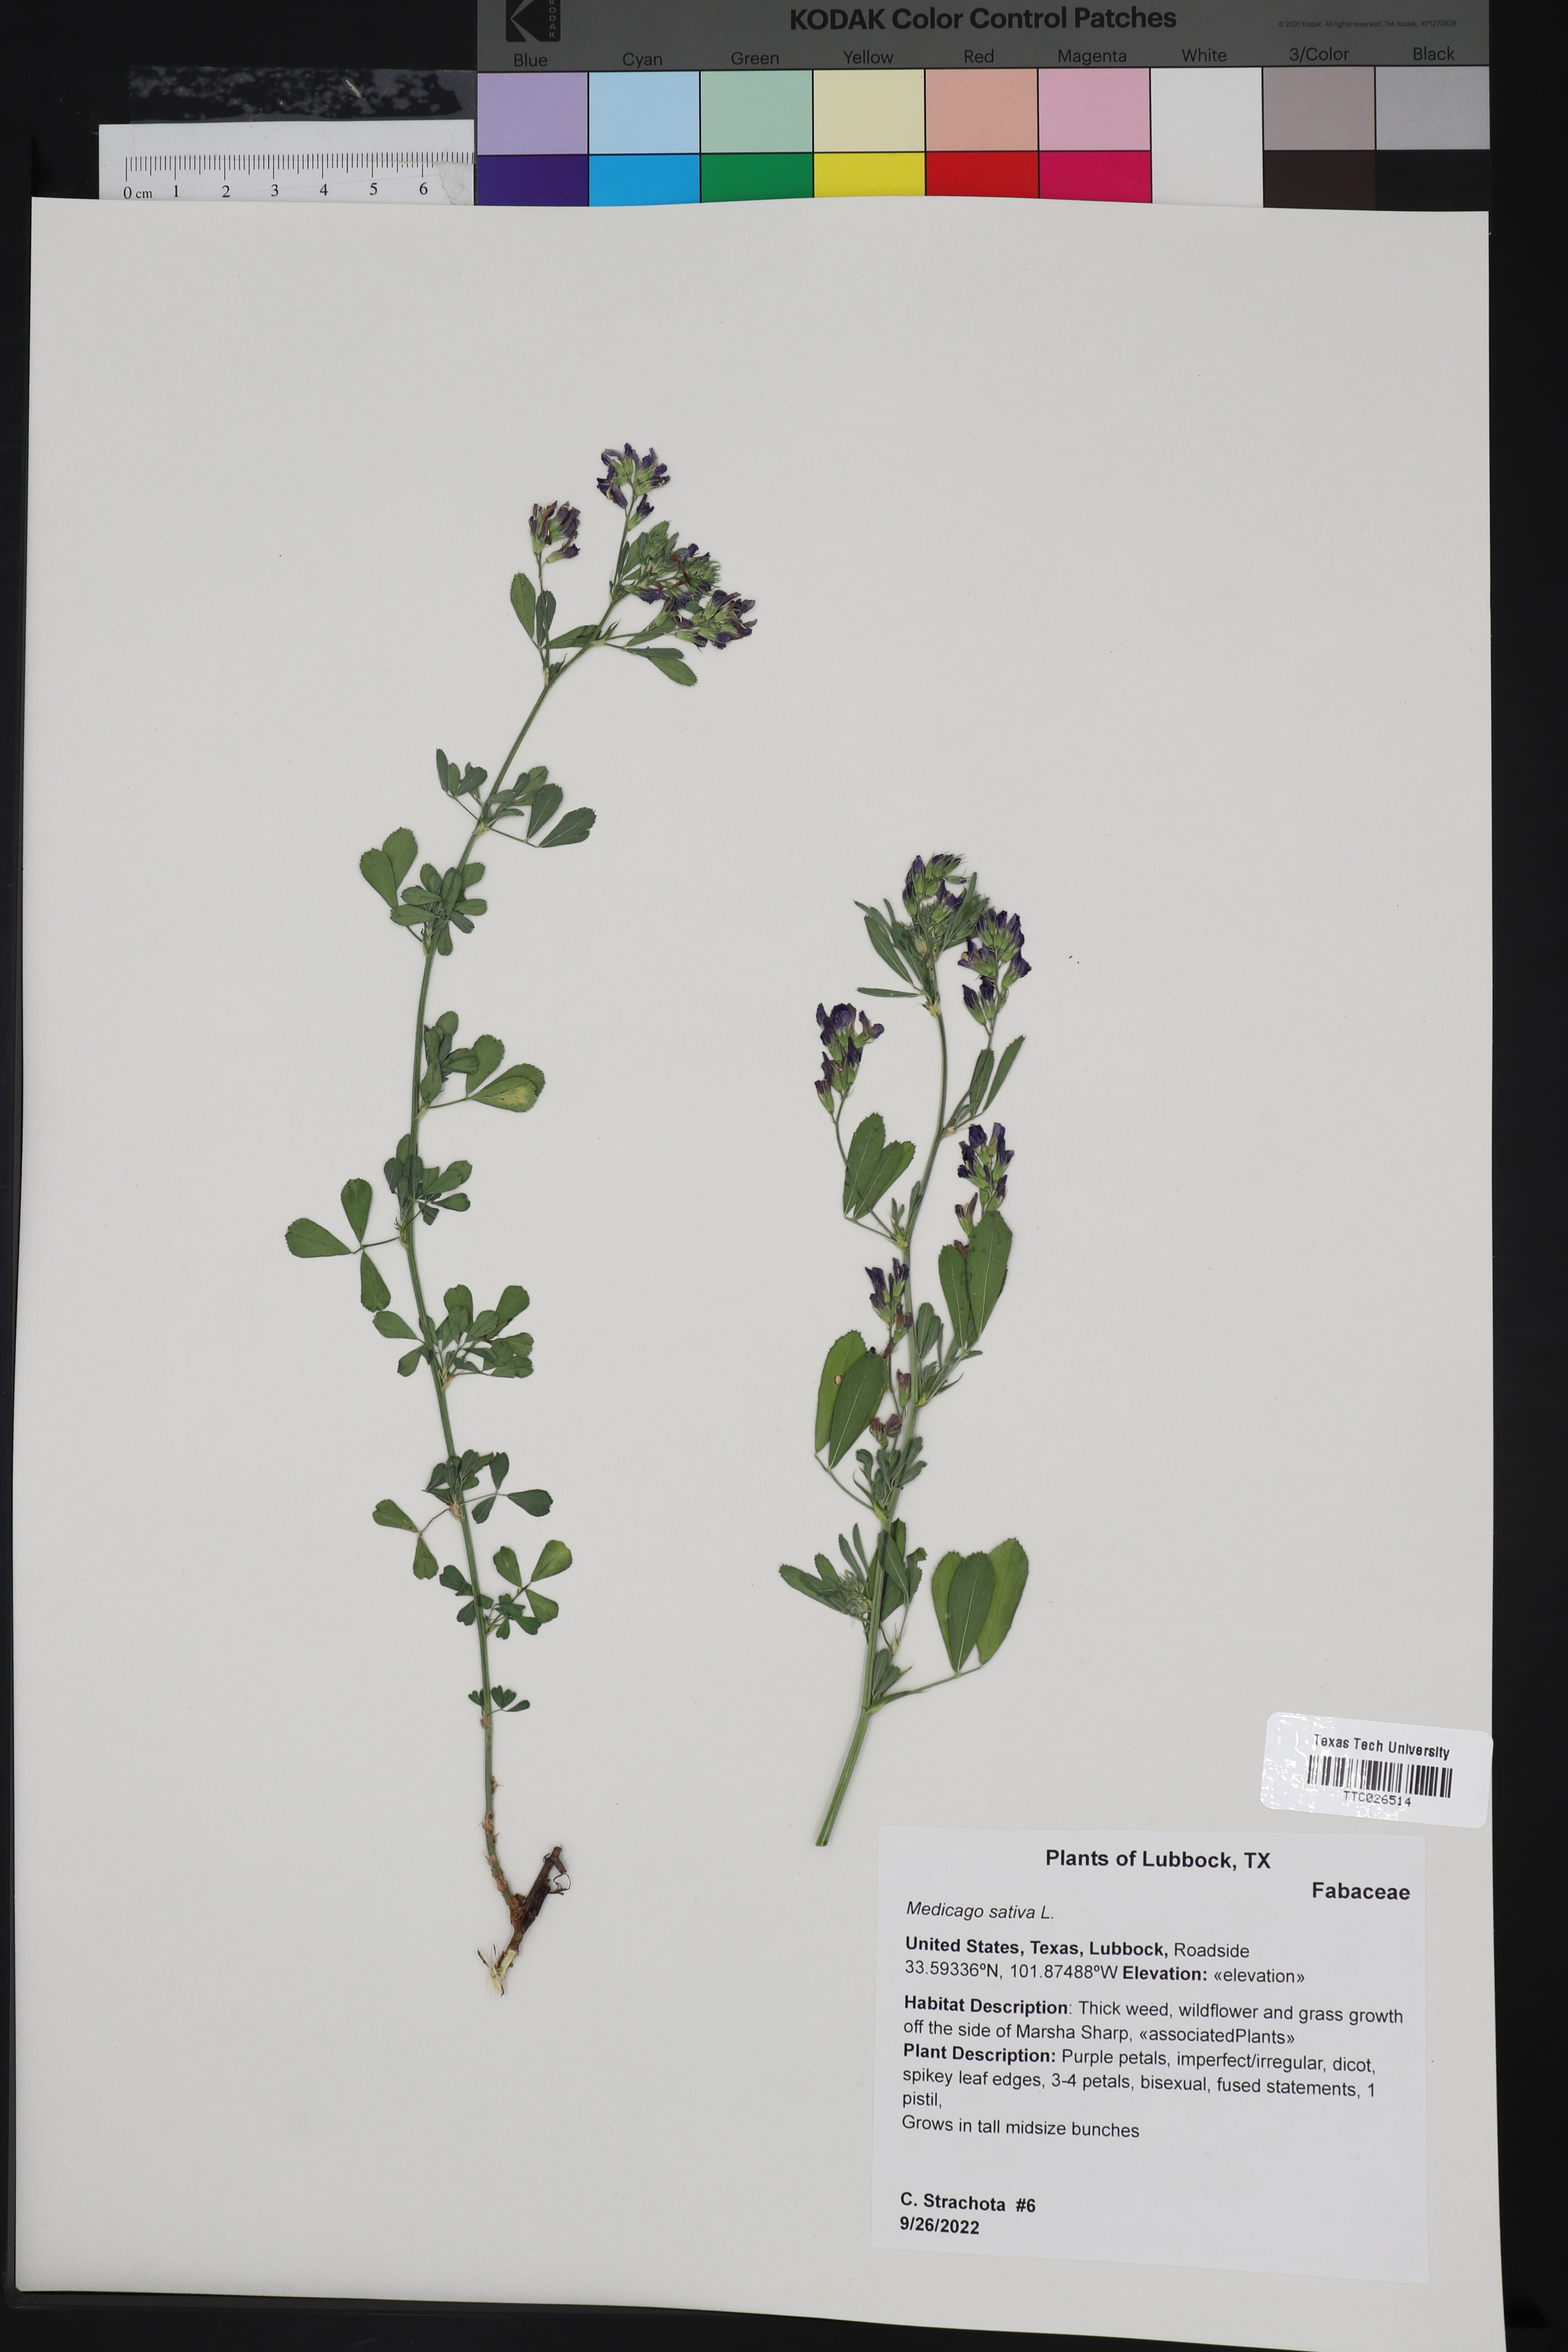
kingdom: Plantae
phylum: Tracheophyta
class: Magnoliopsida
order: Fabales
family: Fabaceae
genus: Medicago
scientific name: Medicago sativa
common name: Alfalfa
